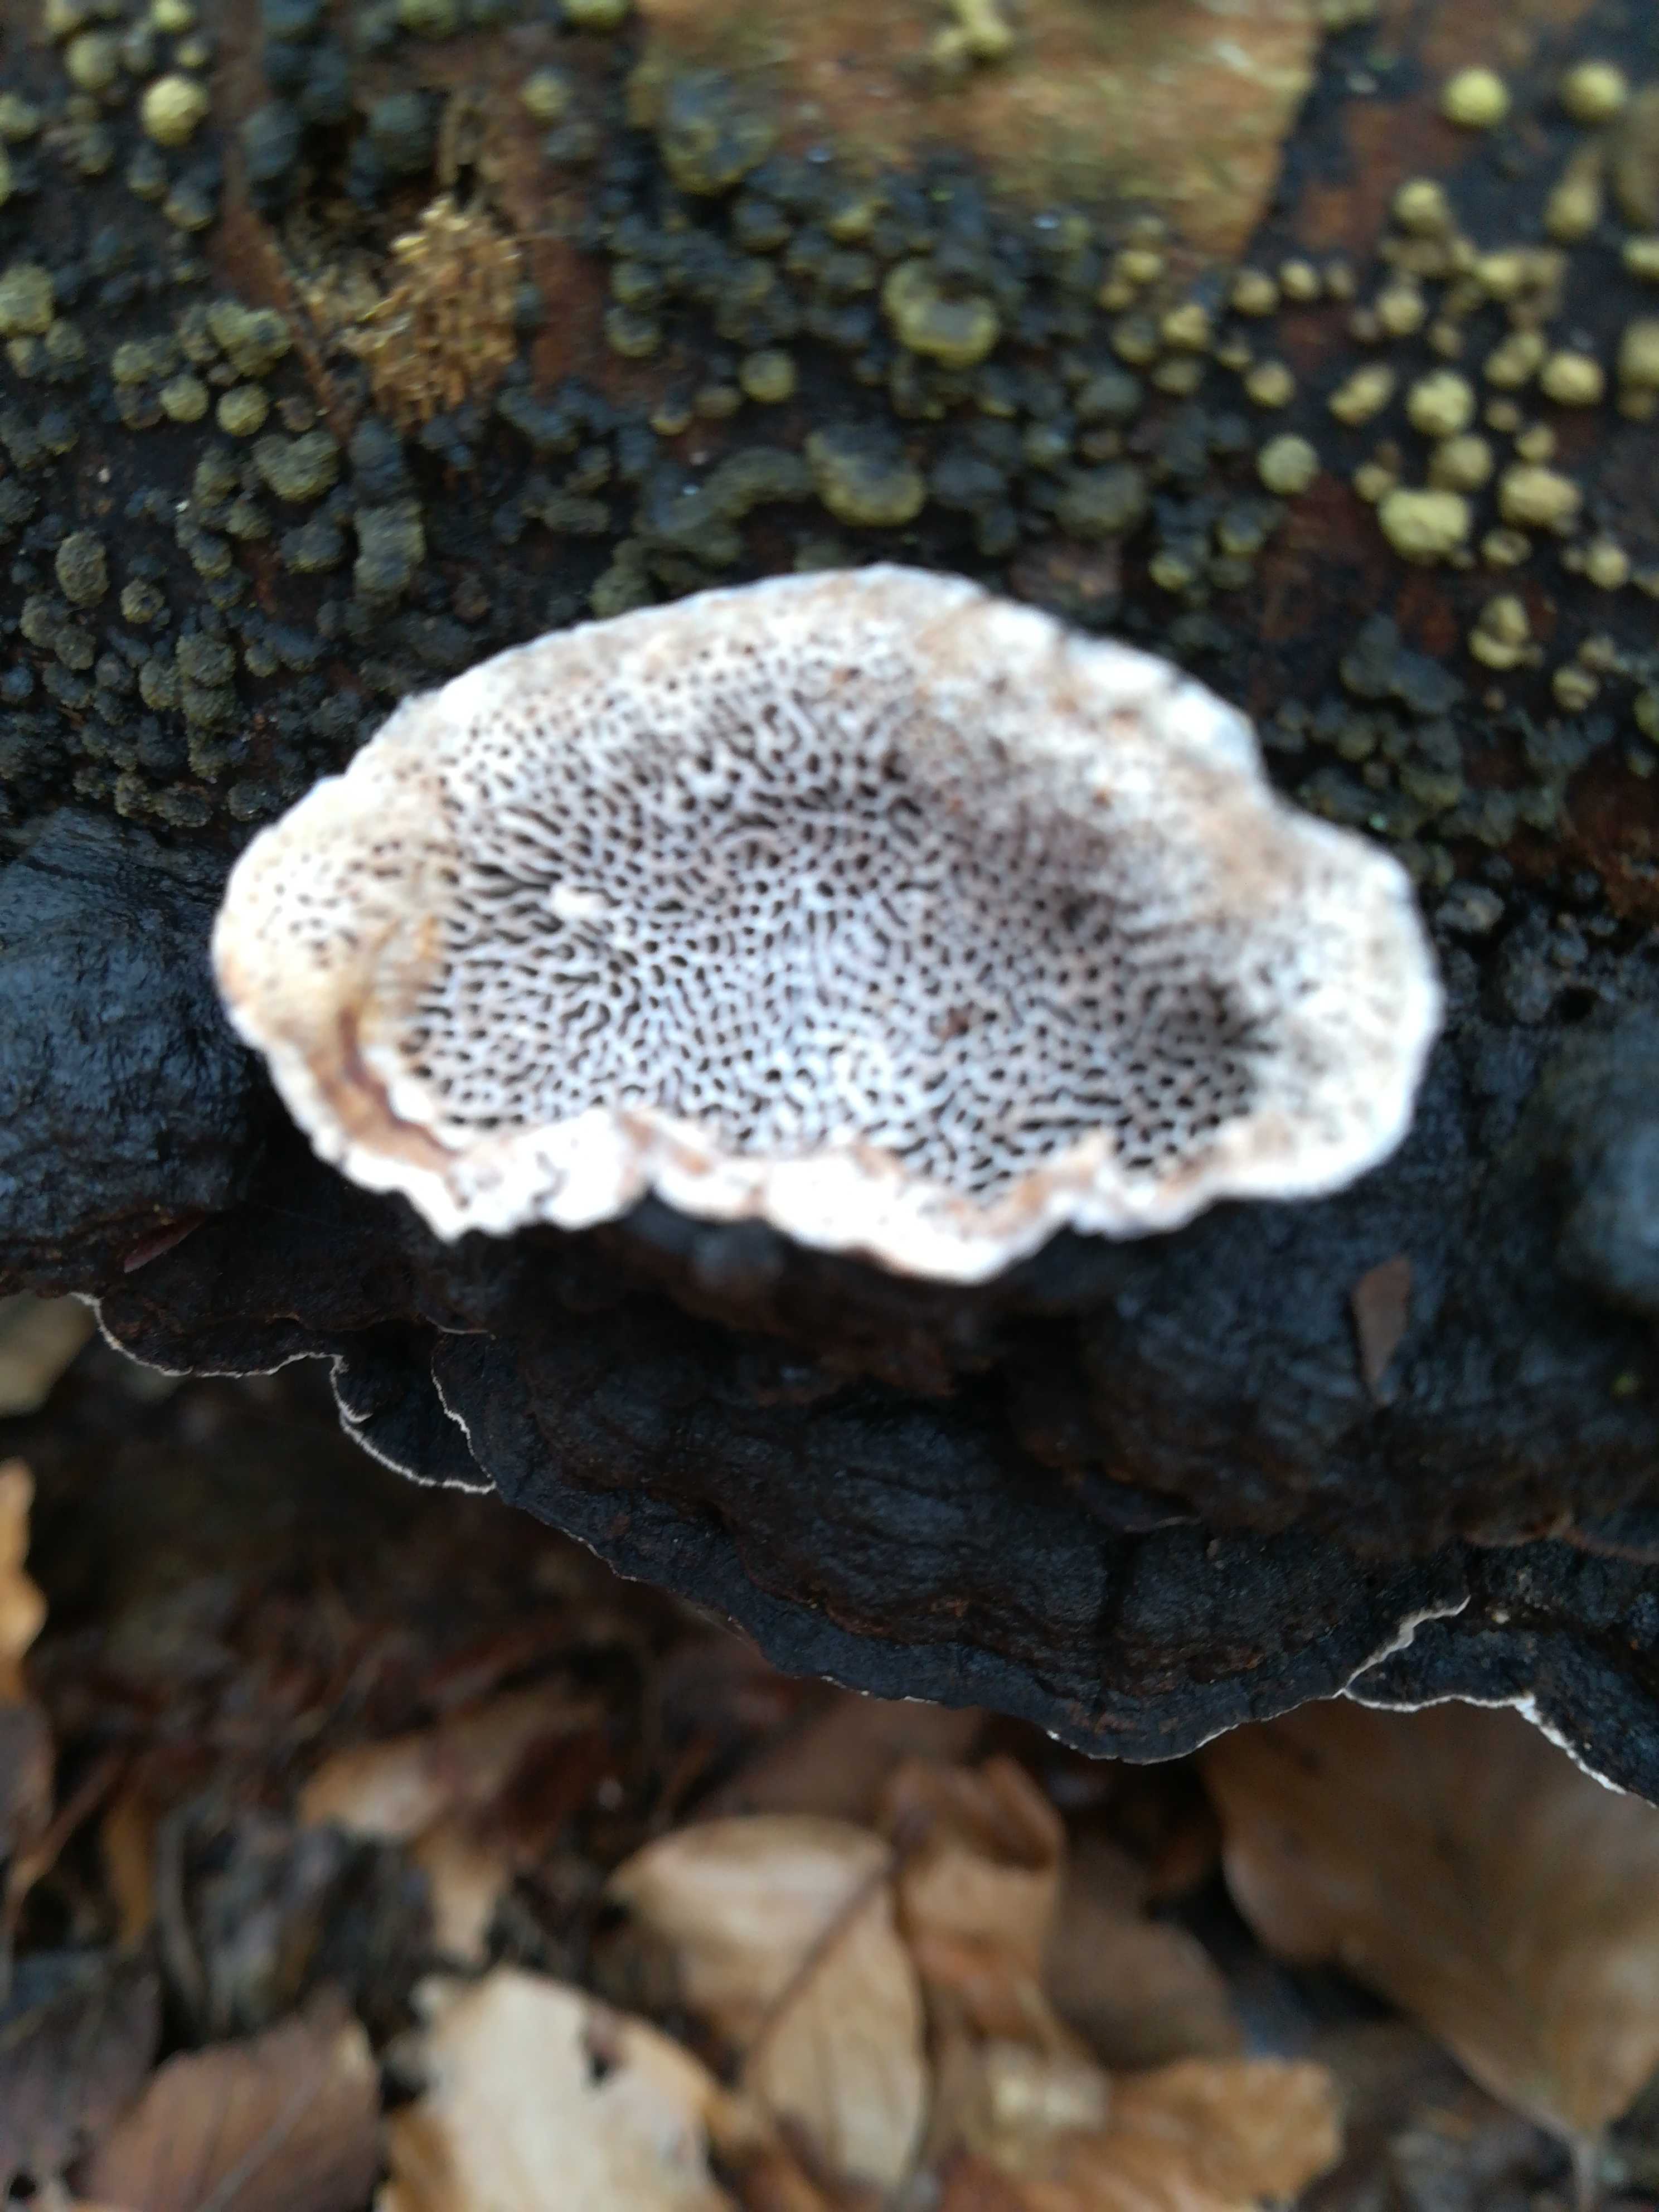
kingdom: Fungi
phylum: Basidiomycota
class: Agaricomycetes
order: Polyporales
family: Polyporaceae
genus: Podofomes
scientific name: Podofomes mollis
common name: blød begporesvamp
